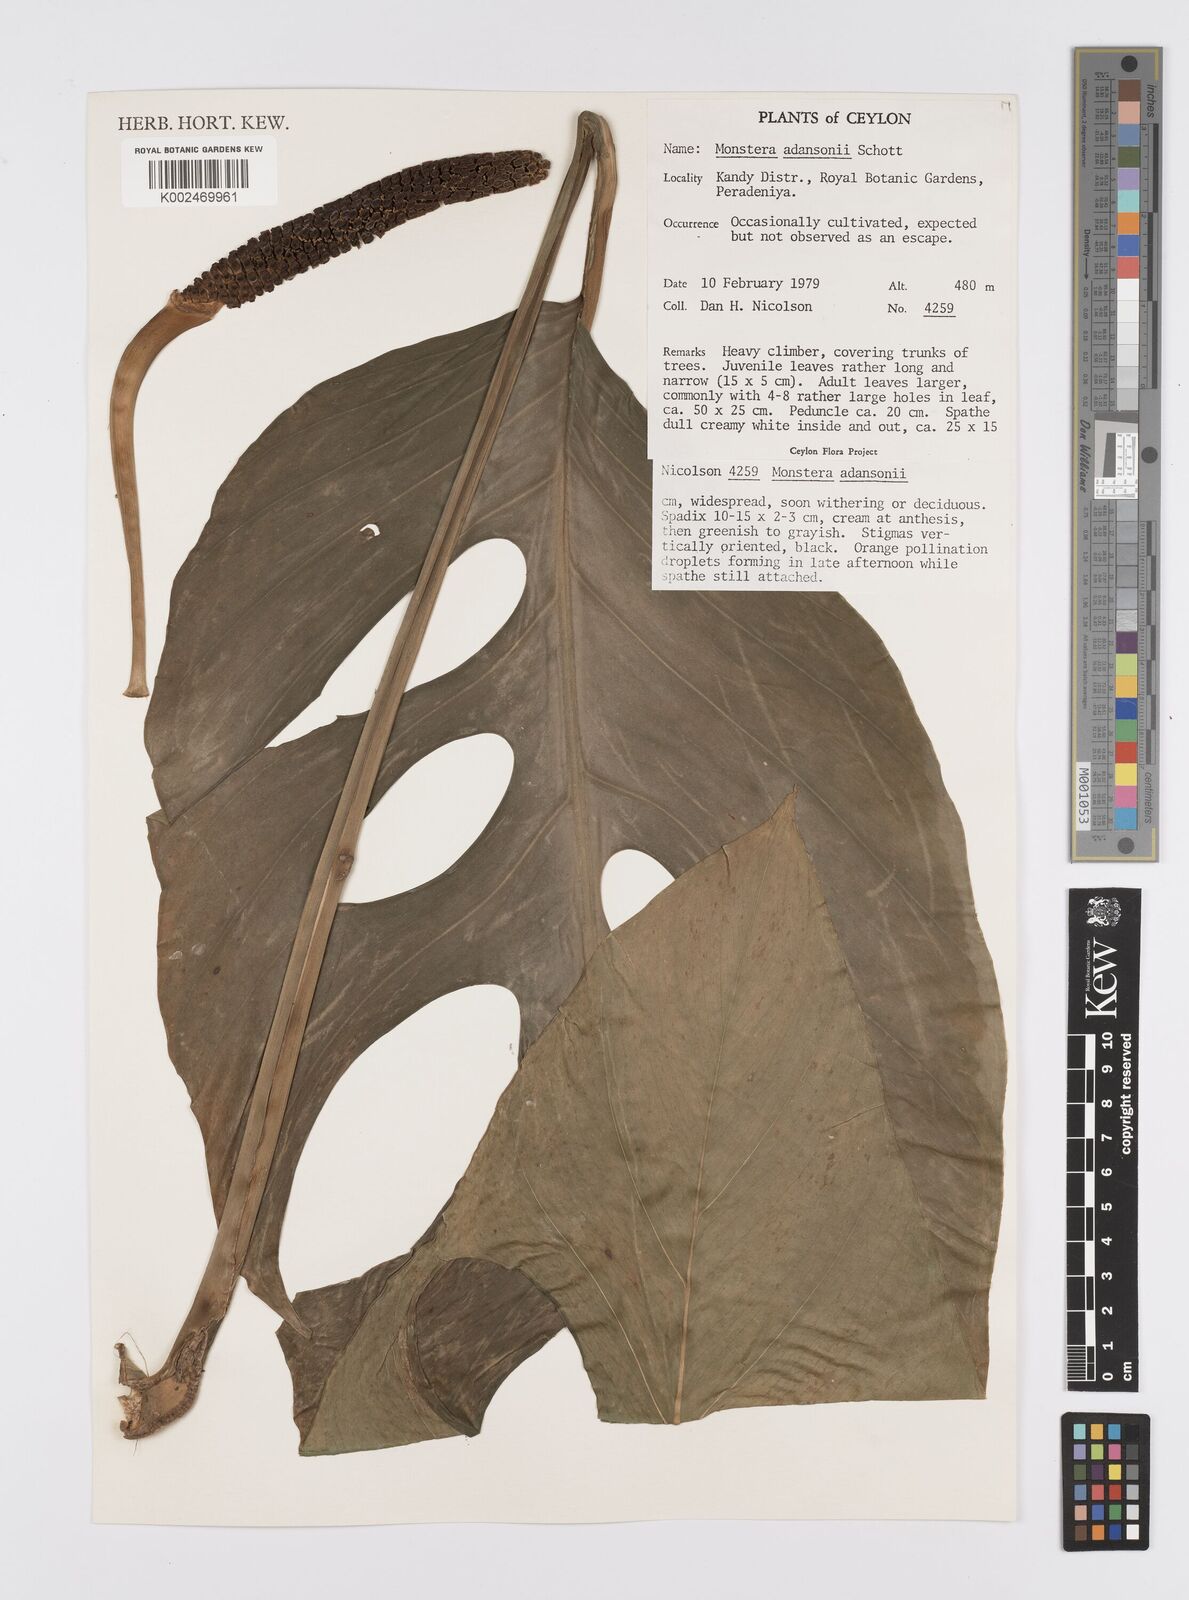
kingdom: Plantae
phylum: Tracheophyta
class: Liliopsida
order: Alismatales
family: Araceae
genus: Monstera
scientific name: Monstera adansonii
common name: Tarovine
